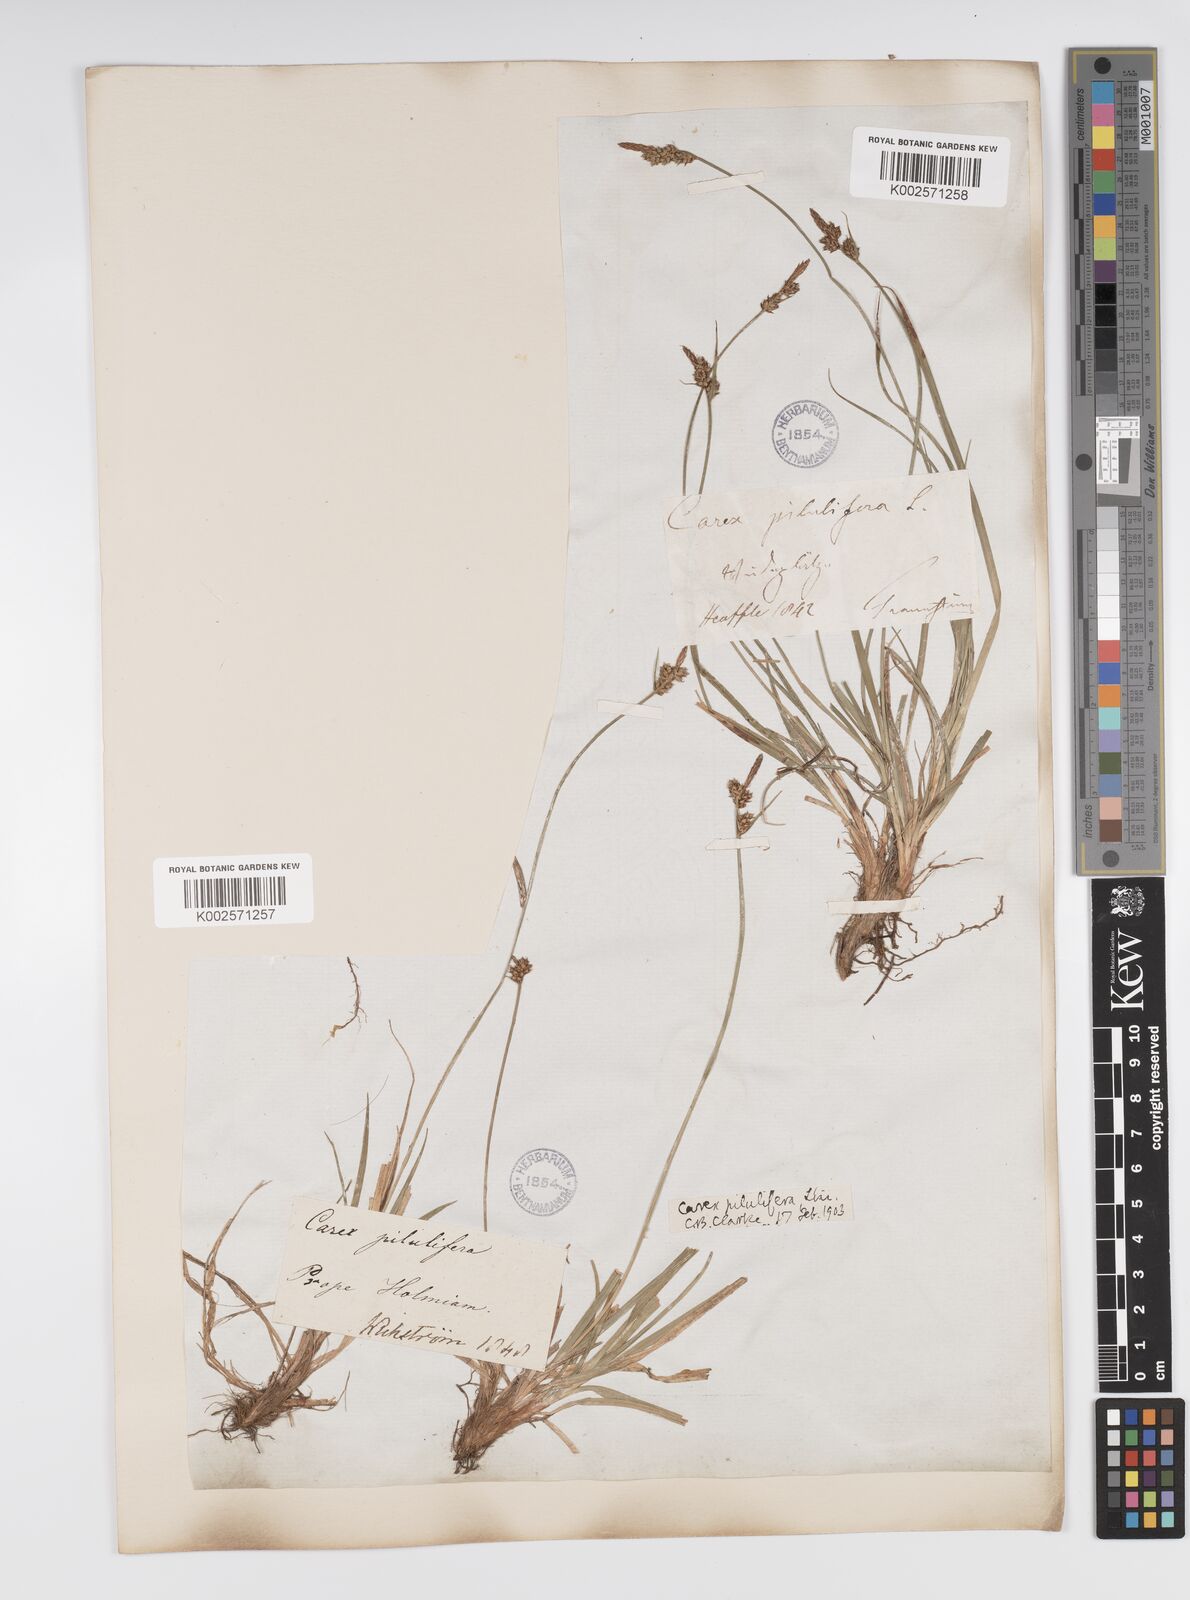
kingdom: Plantae
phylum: Tracheophyta
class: Liliopsida
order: Poales
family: Cyperaceae
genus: Carex
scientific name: Carex pilulifera
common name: Pill sedge
